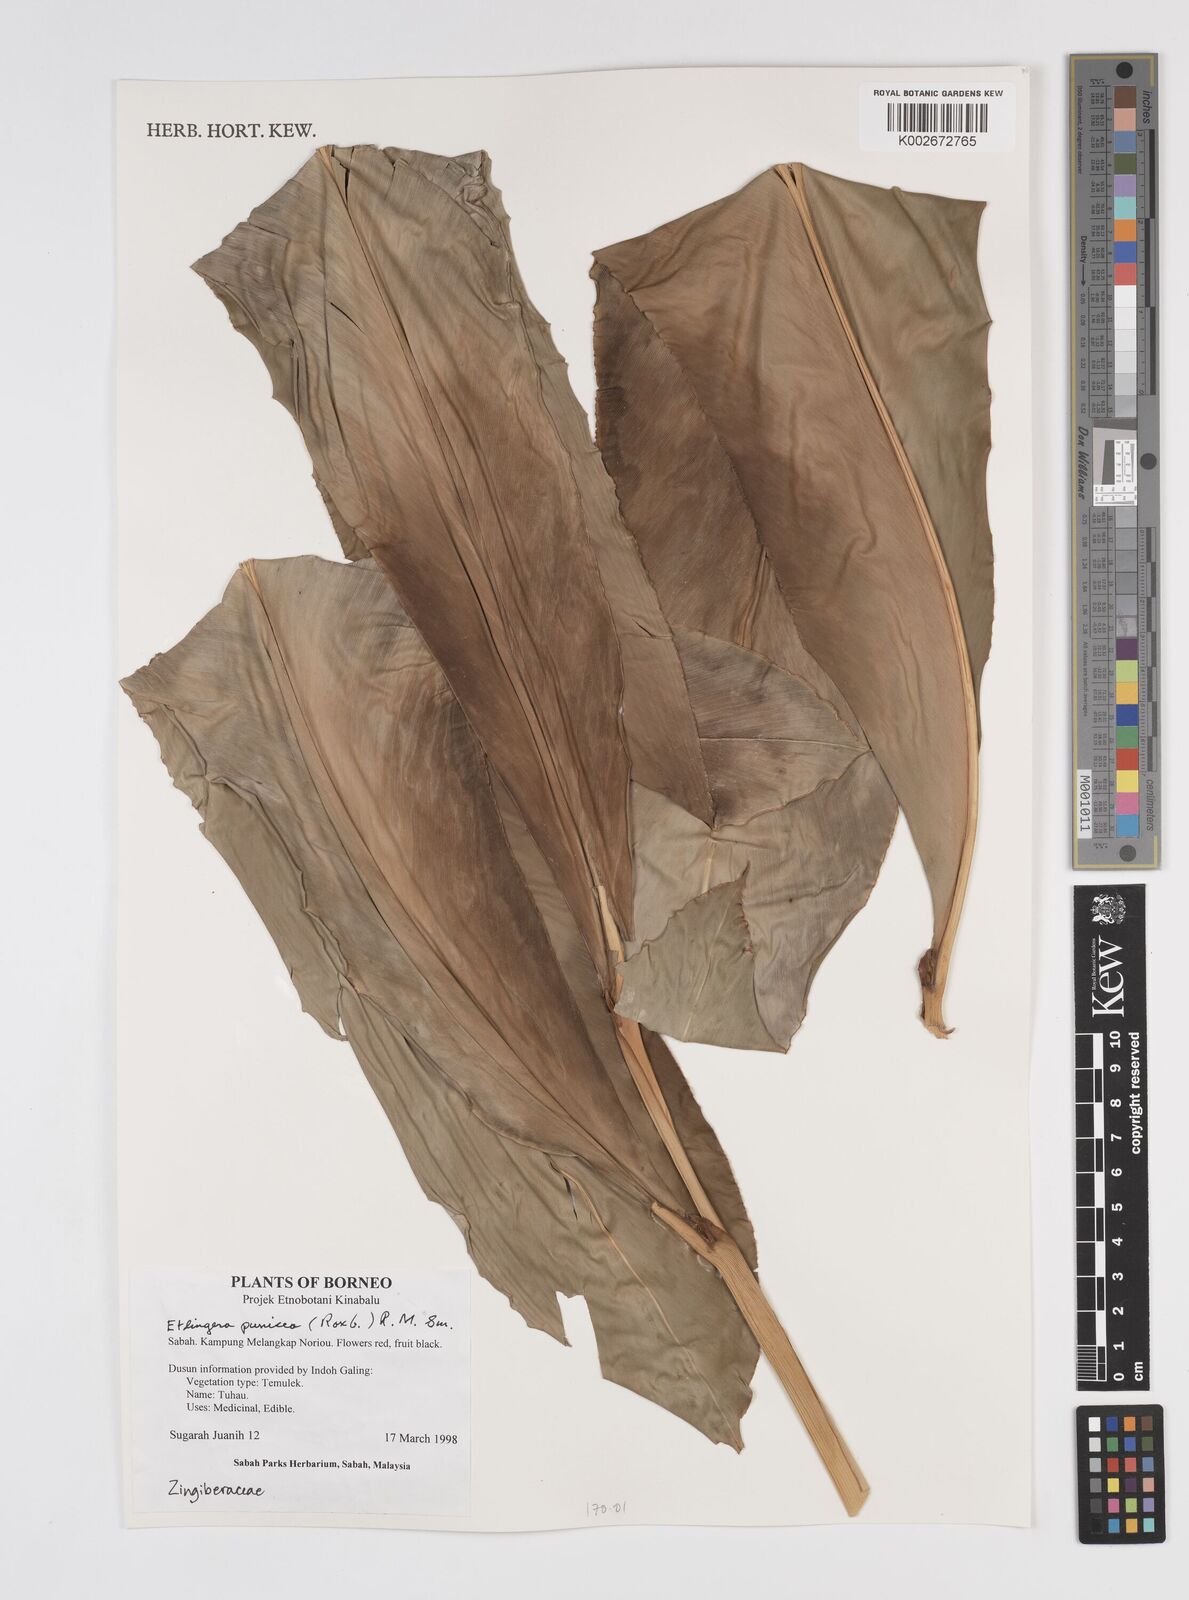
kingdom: Plantae
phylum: Tracheophyta
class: Liliopsida
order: Zingiberales
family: Zingiberaceae
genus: Etlingera
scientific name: Etlingera punicea
